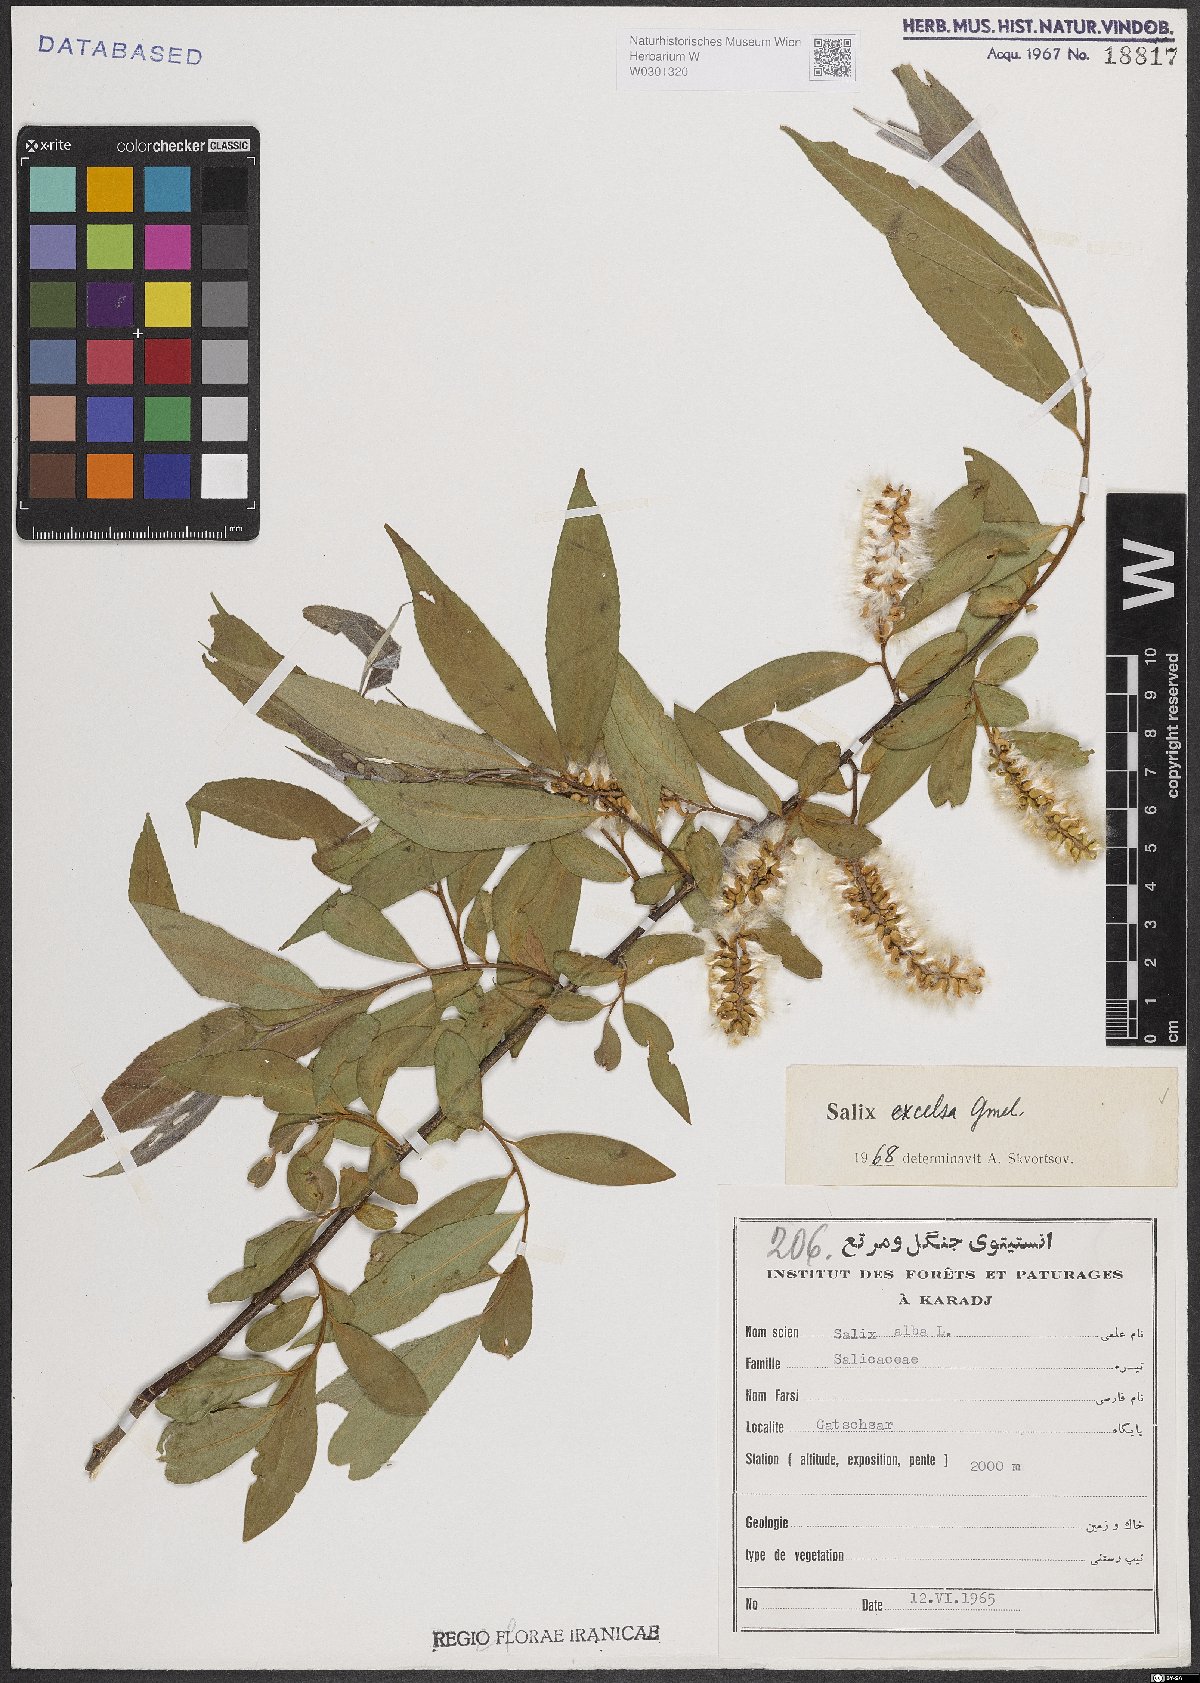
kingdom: Plantae
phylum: Tracheophyta
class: Magnoliopsida
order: Malpighiales
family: Salicaceae
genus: Salix
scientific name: Salix excelsa
